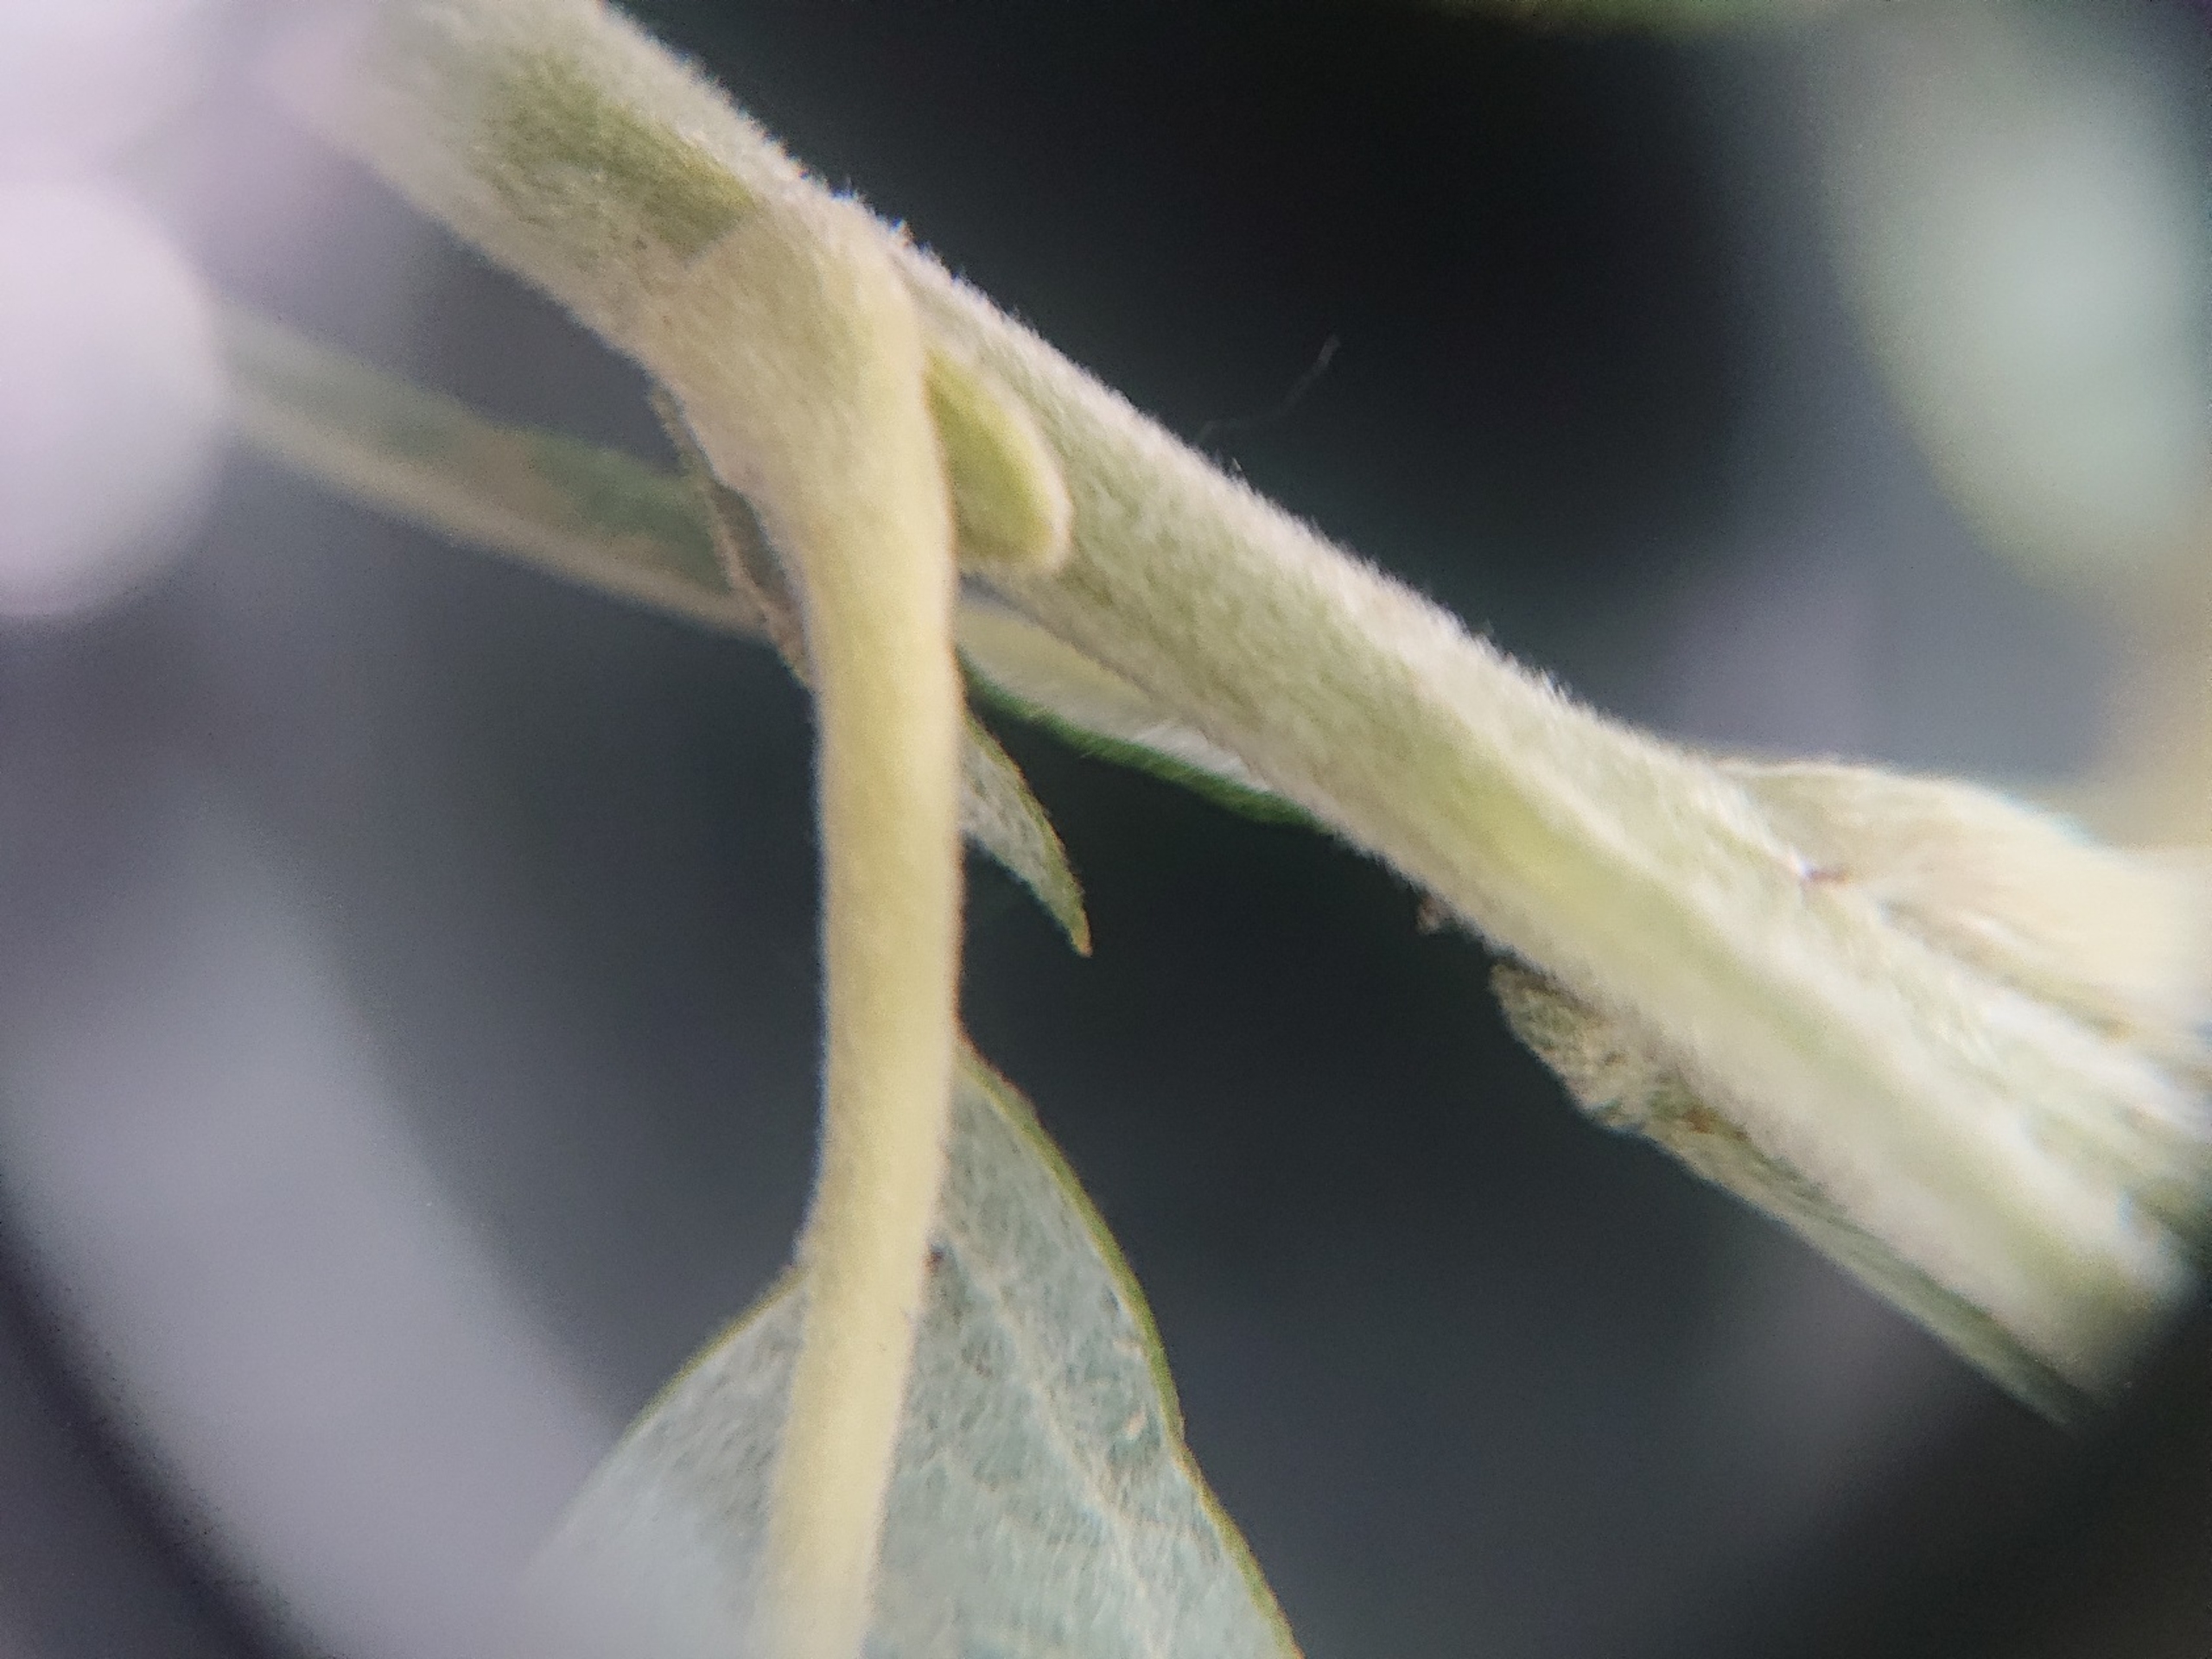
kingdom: Plantae
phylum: Tracheophyta
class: Magnoliopsida
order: Malpighiales
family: Salicaceae
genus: Salix
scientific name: Salix
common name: Pileslægten
